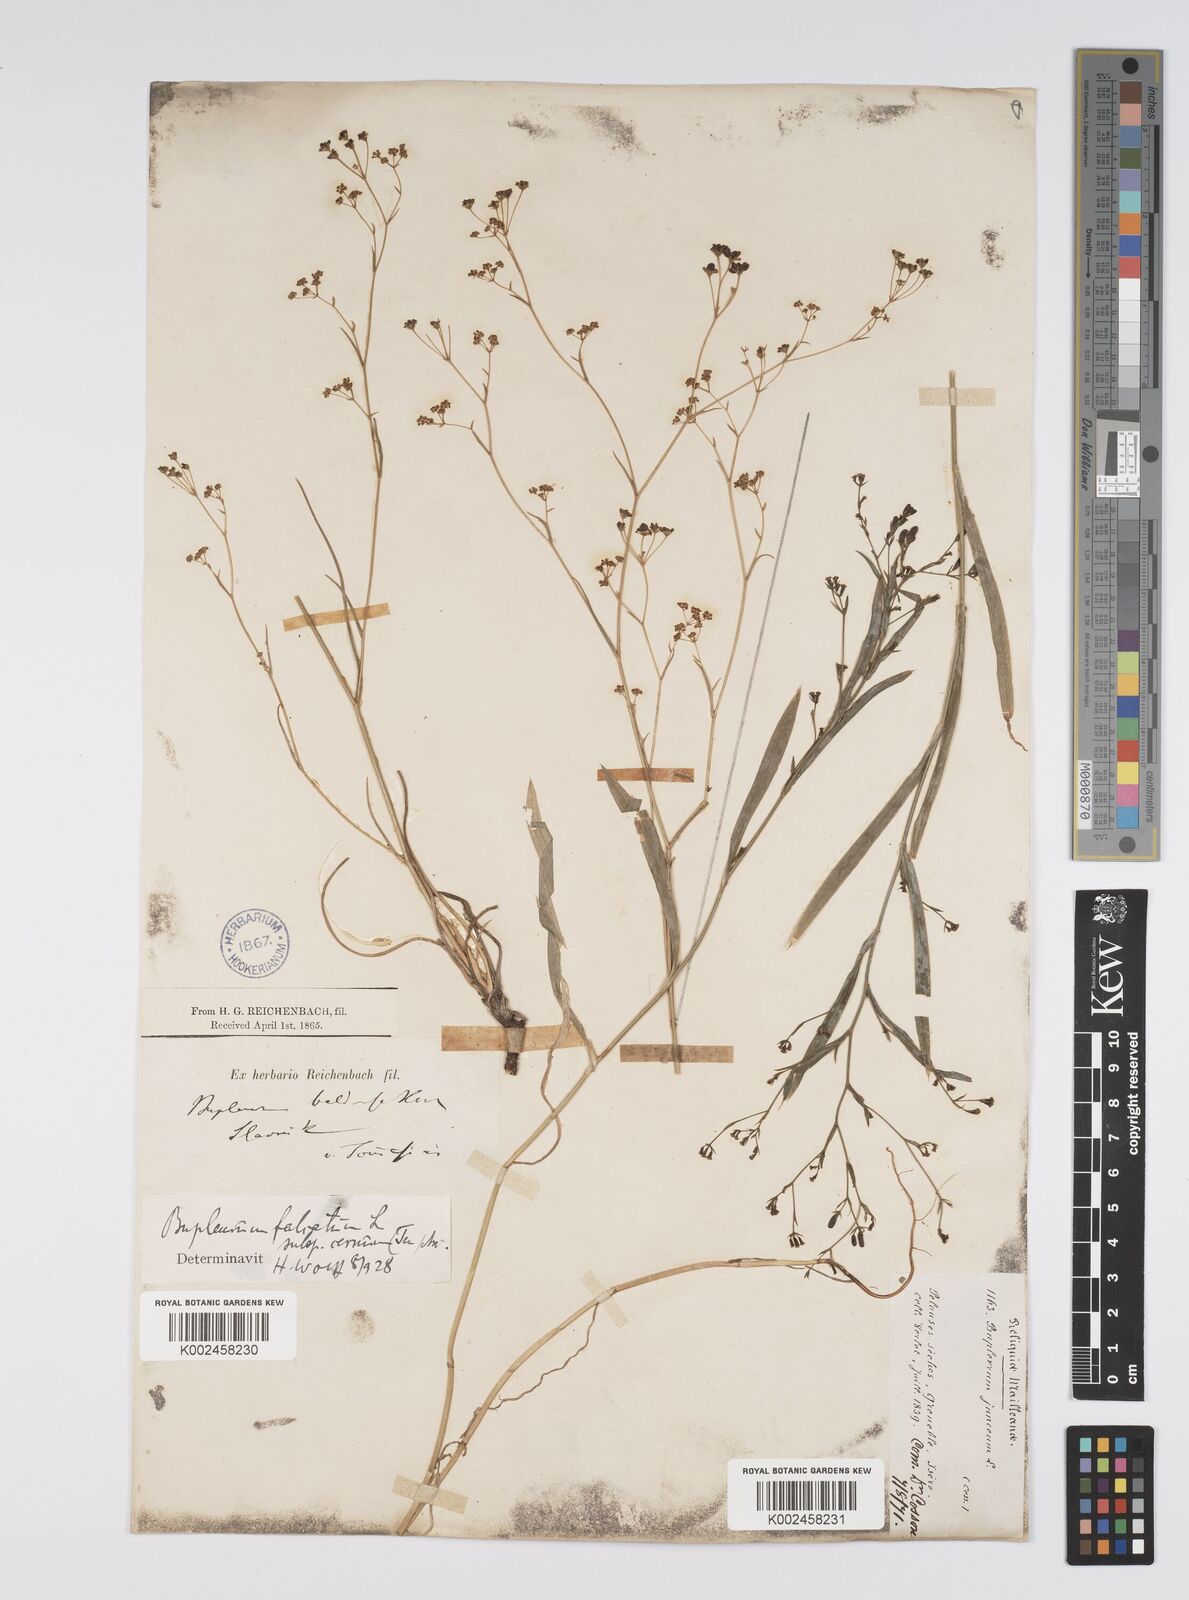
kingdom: Plantae
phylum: Tracheophyta
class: Magnoliopsida
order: Apiales
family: Apiaceae
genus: Bupleurum
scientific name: Bupleurum praealtum
